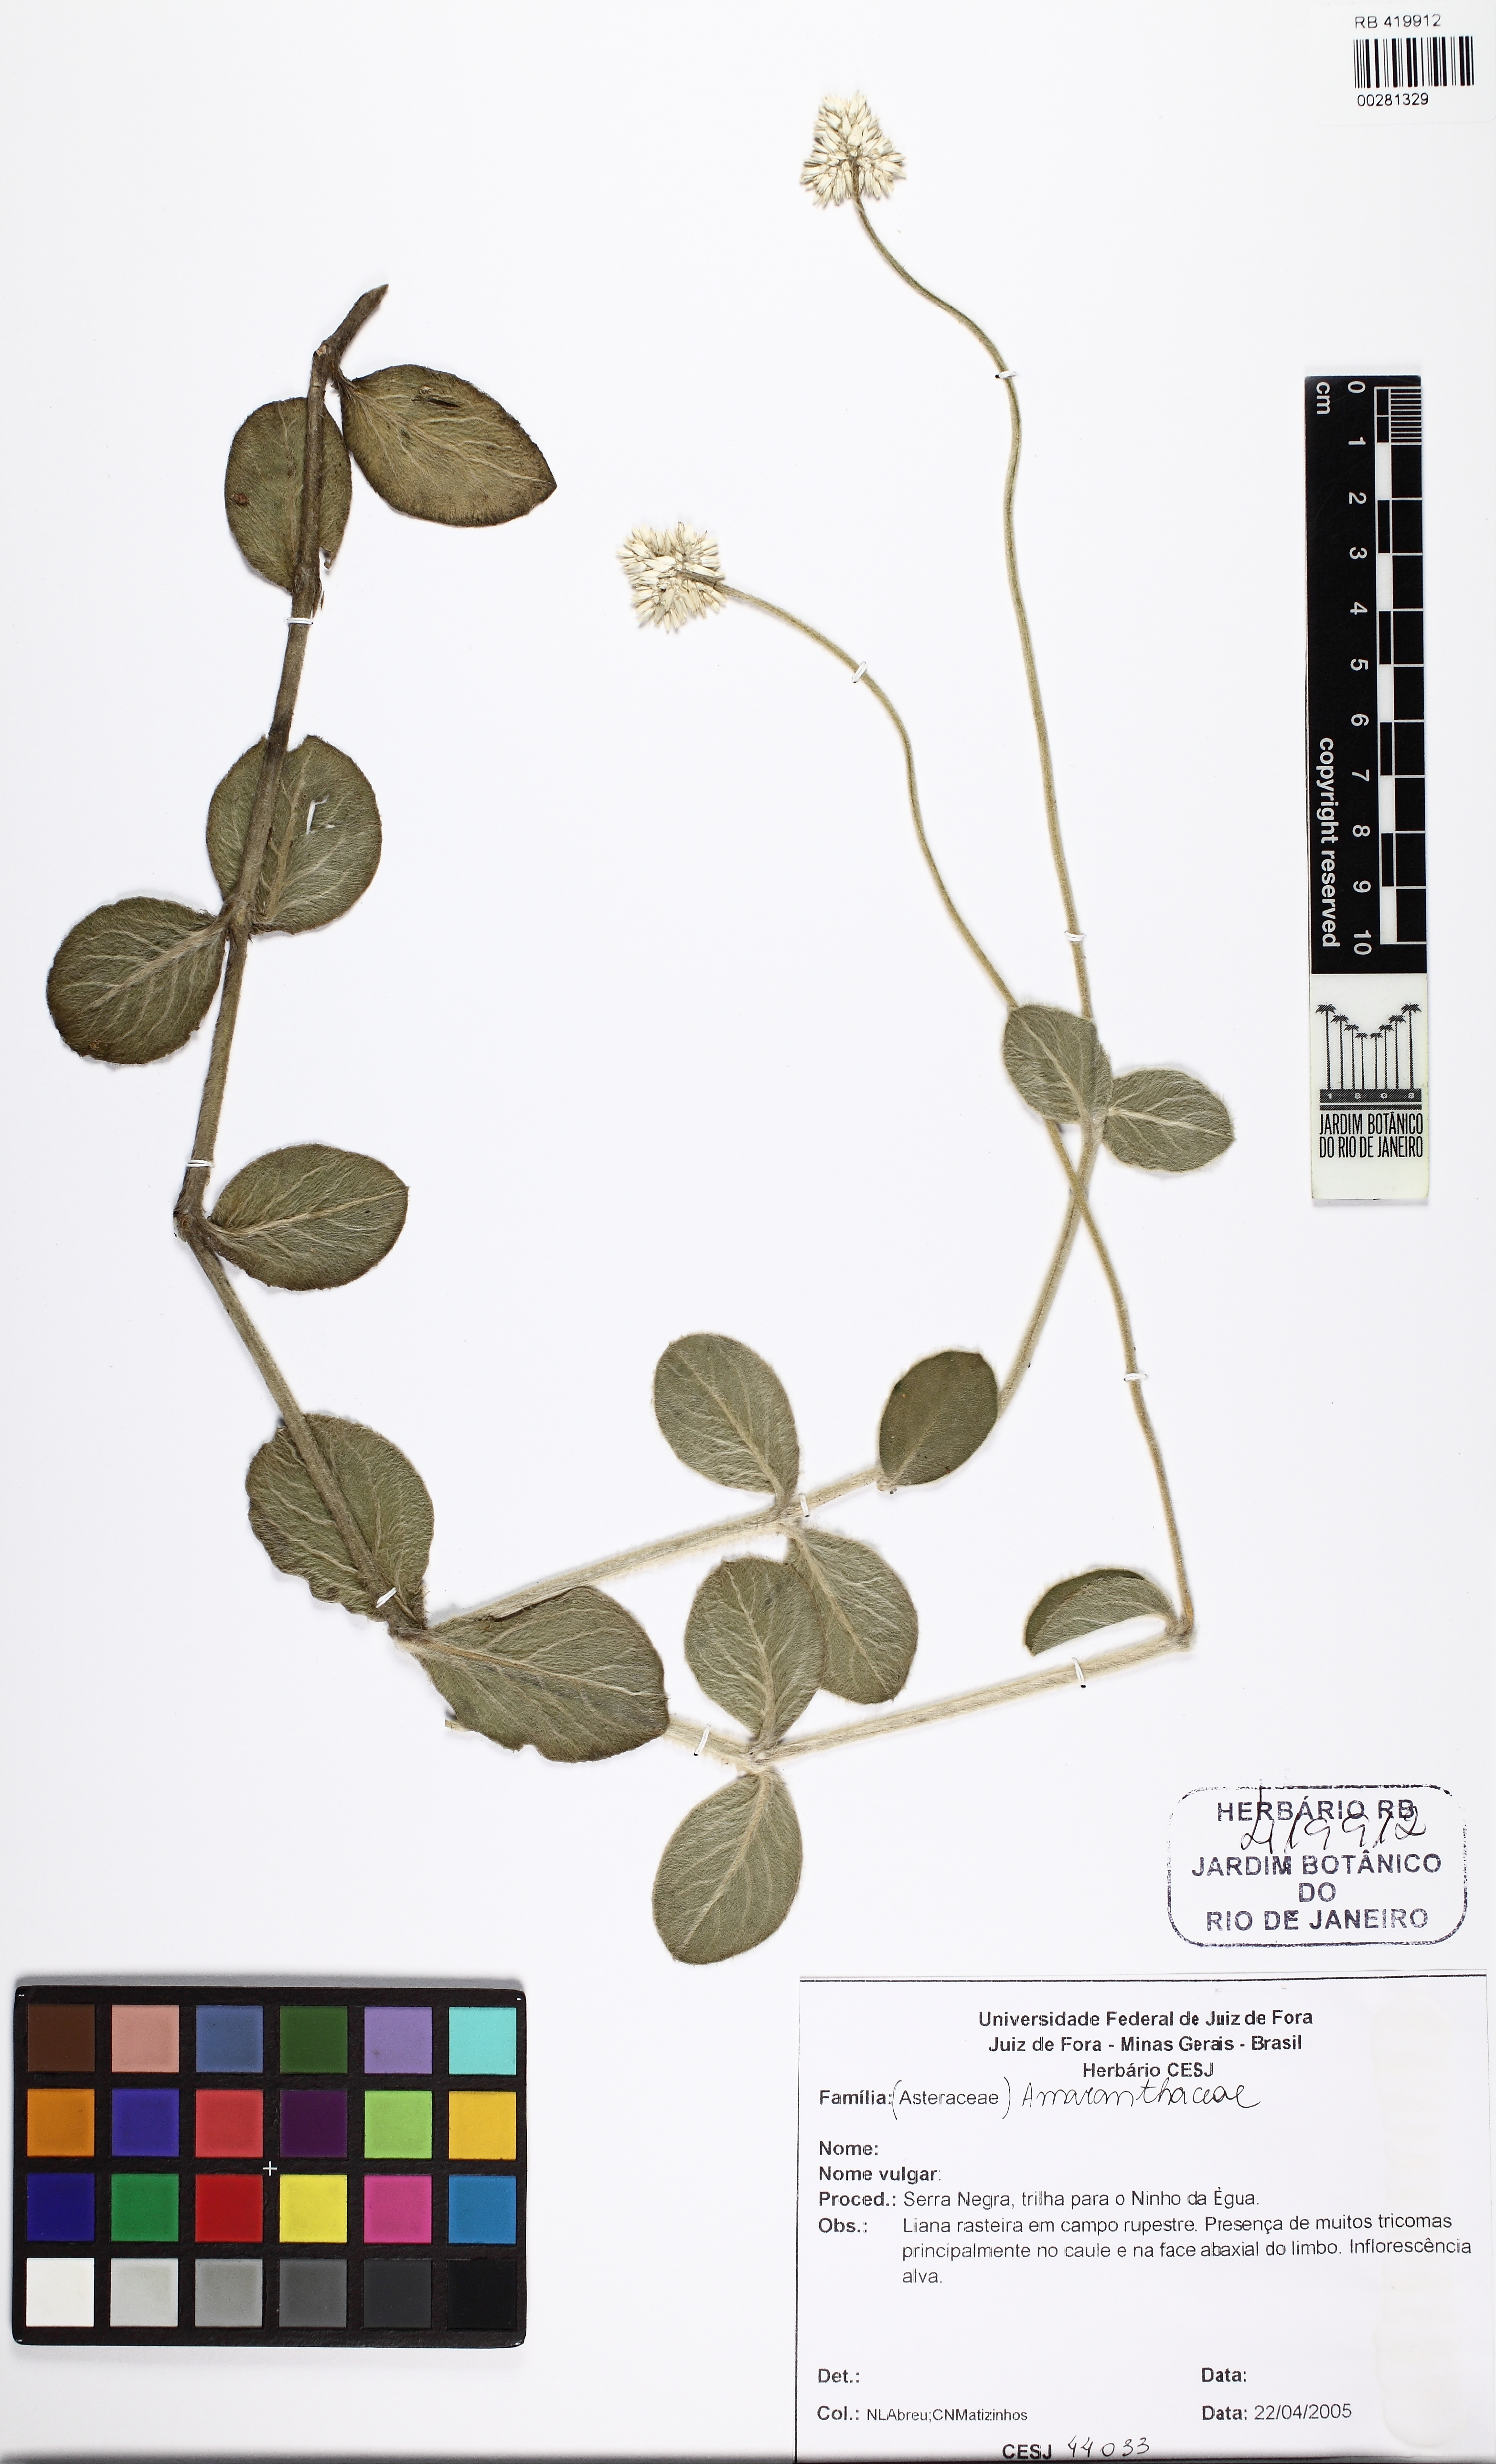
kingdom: Plantae
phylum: Tracheophyta
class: Magnoliopsida
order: Caryophyllales
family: Amaranthaceae
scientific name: Amaranthaceae
